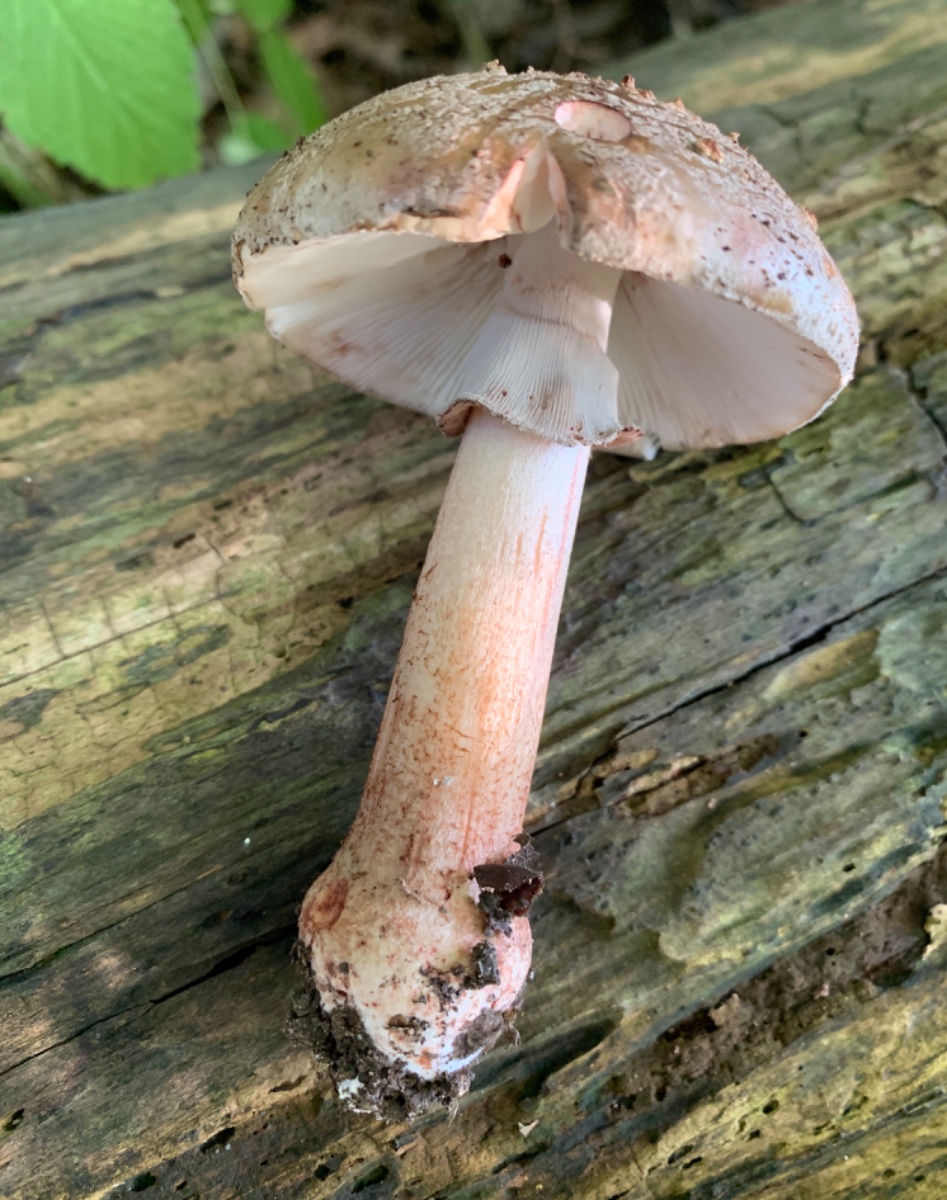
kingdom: Fungi
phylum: Basidiomycota
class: Agaricomycetes
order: Agaricales
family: Amanitaceae
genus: Amanita
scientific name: Amanita rubescens
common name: rødmende fluesvamp
